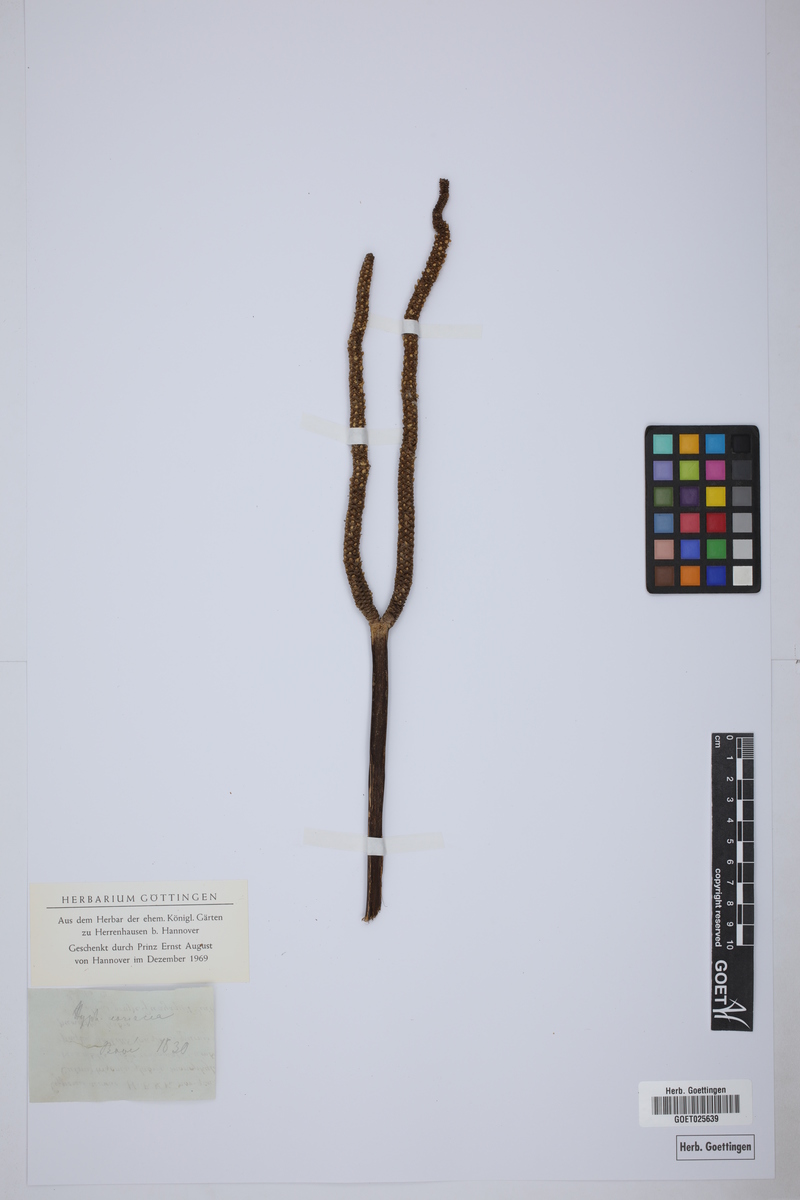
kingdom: Plantae
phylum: Tracheophyta
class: Liliopsida
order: Arecales
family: Arecaceae
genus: Hyphaene
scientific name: Hyphaene coriacea
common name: Ilala palm
